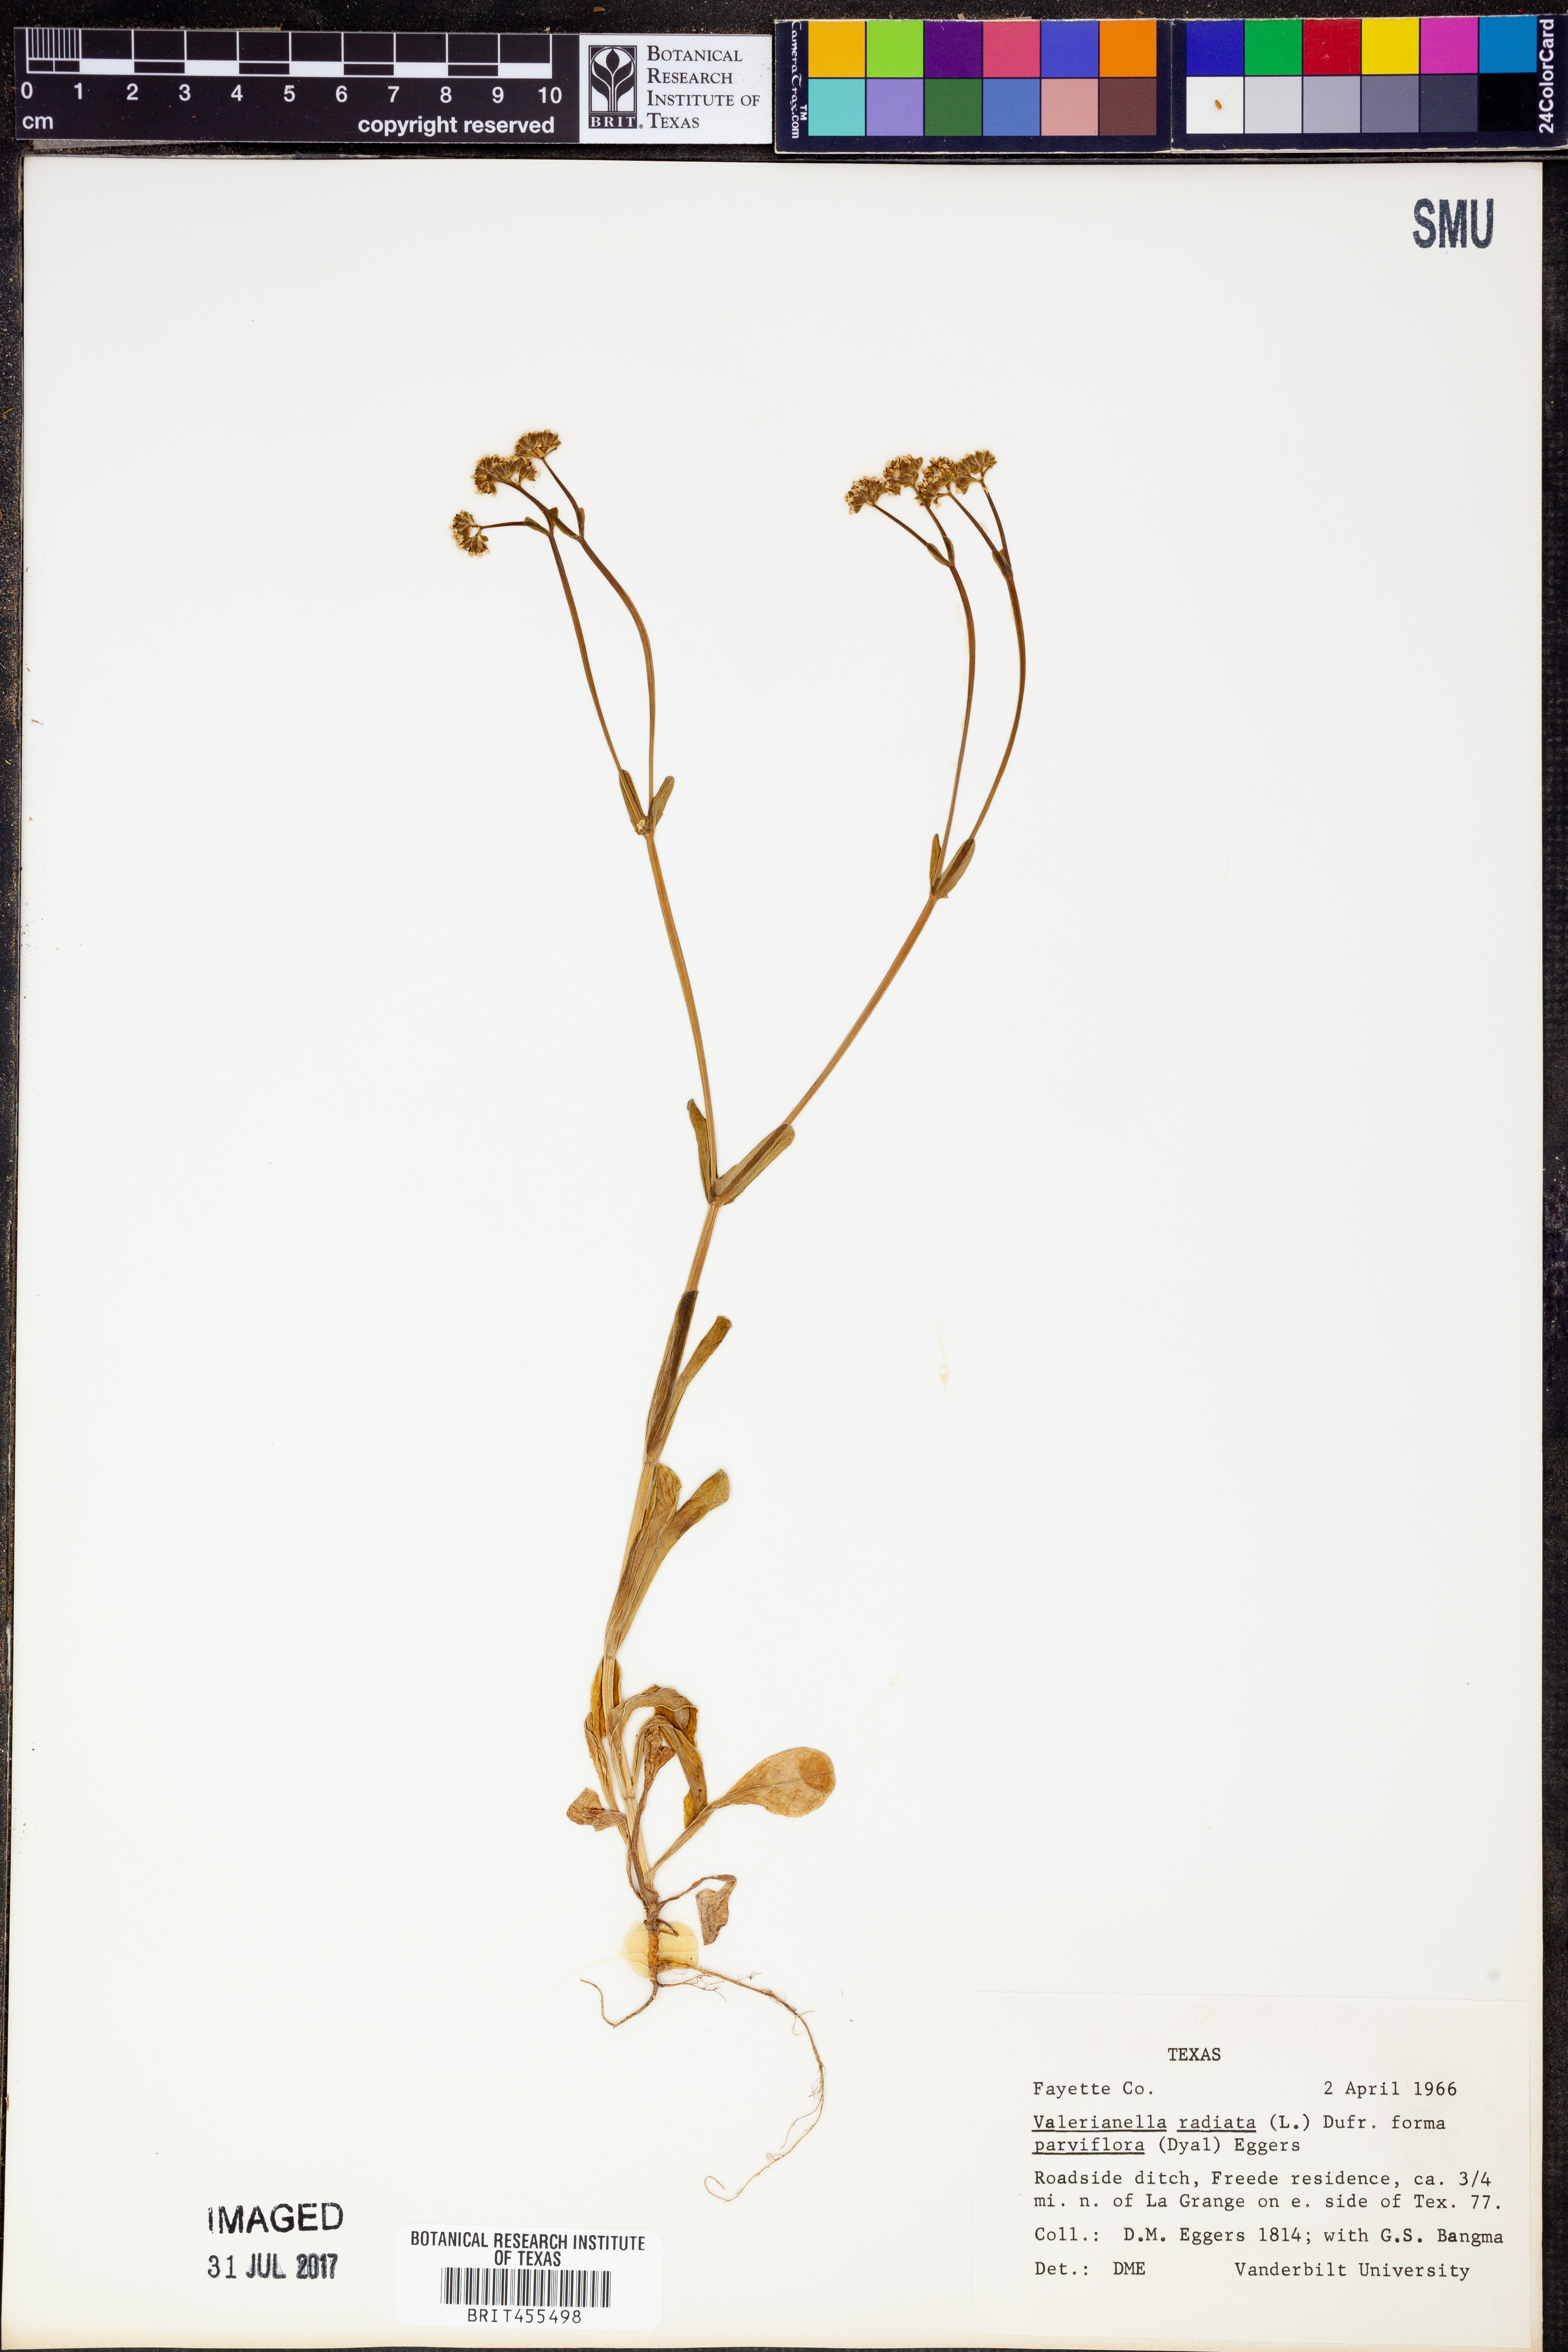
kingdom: Plantae
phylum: Tracheophyta
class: Magnoliopsida
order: Dipsacales
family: Caprifoliaceae
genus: Valerianella
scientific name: Valerianella radiata
